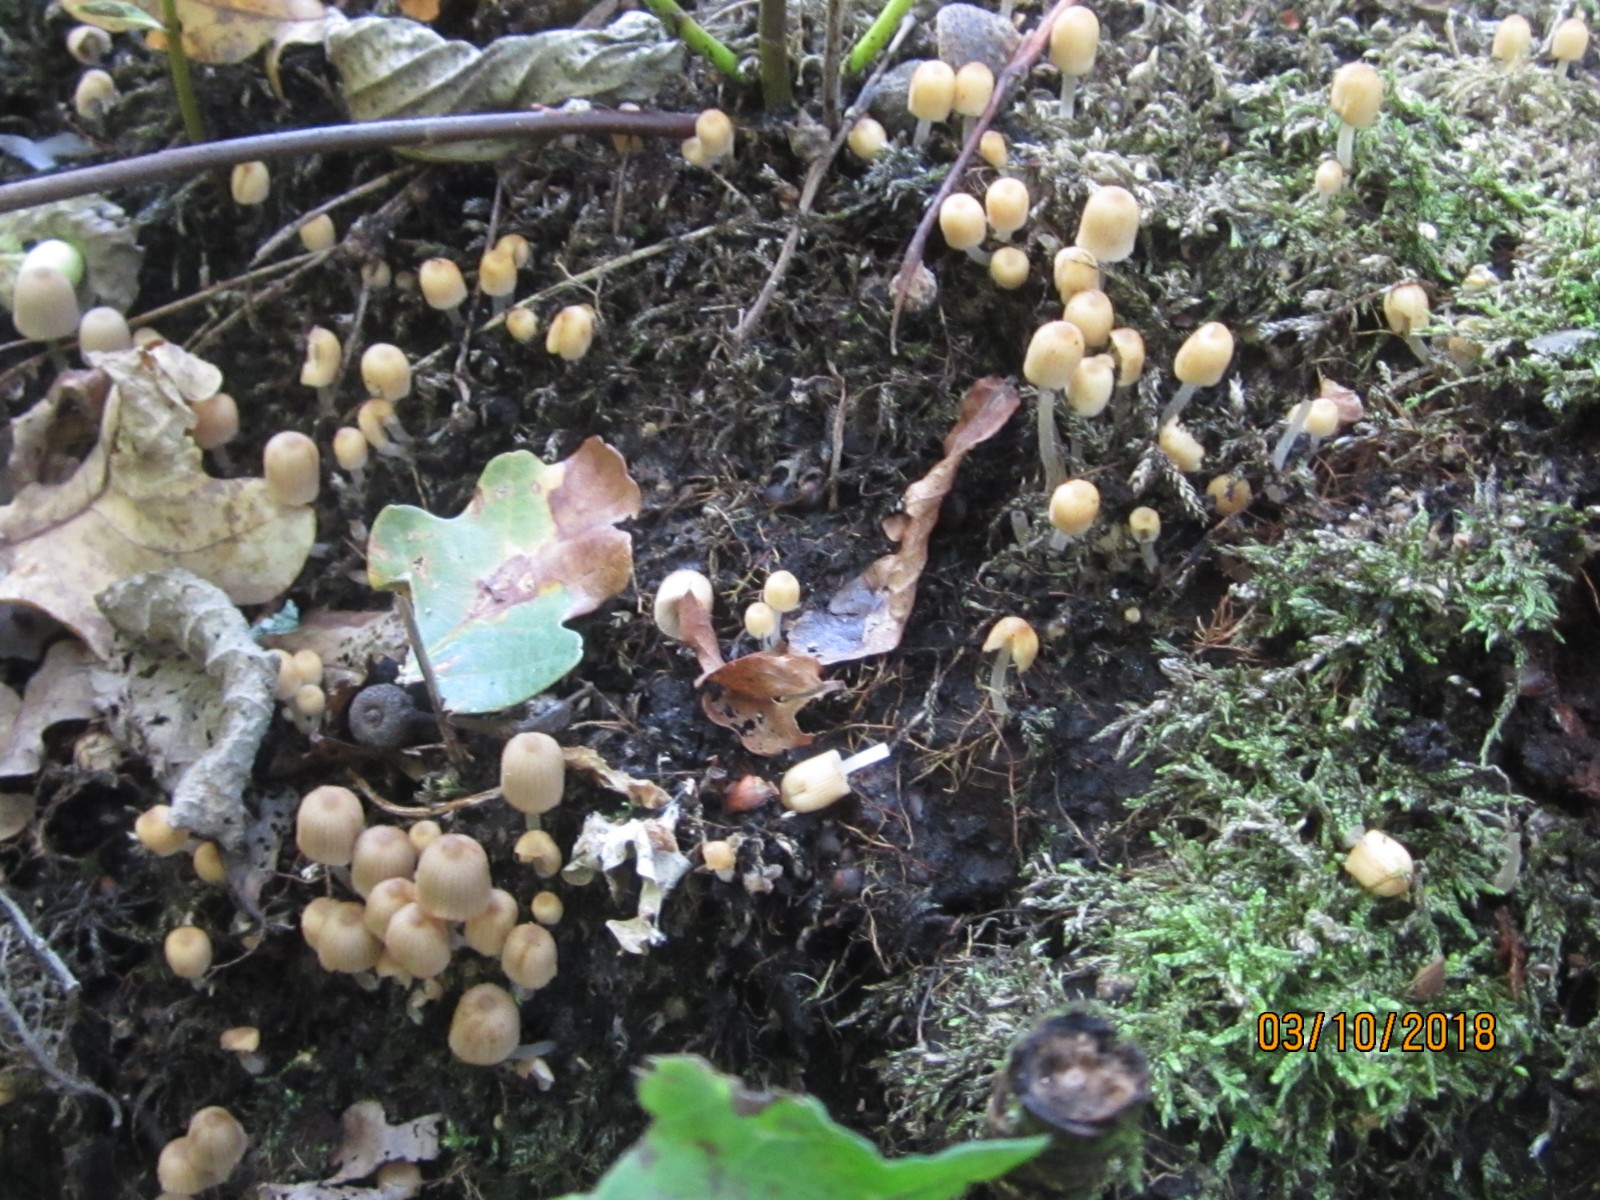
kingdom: Fungi
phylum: Basidiomycota
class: Agaricomycetes
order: Agaricales
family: Psathyrellaceae
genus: Coprinellus
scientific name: Coprinellus disseminatus
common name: bredsået blækhat
